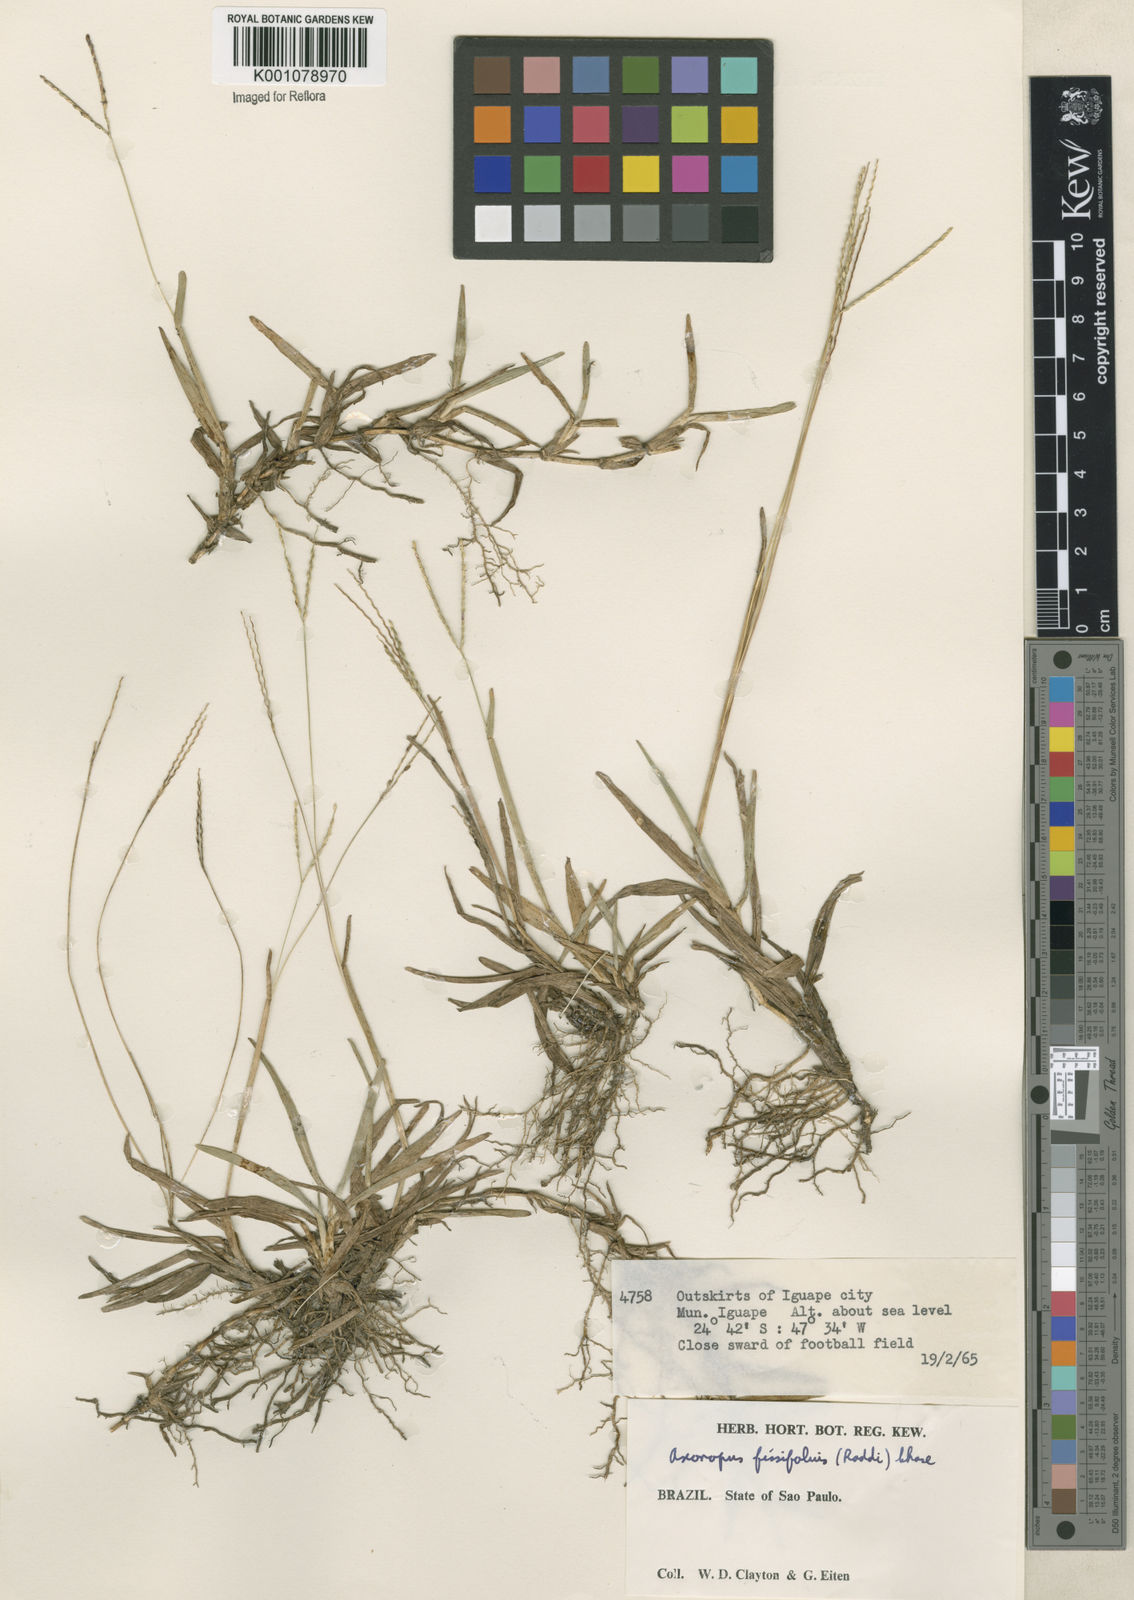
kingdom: Plantae
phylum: Tracheophyta
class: Liliopsida
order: Poales
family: Poaceae
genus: Axonopus
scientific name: Axonopus fissifolius
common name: Common carpetgrass
